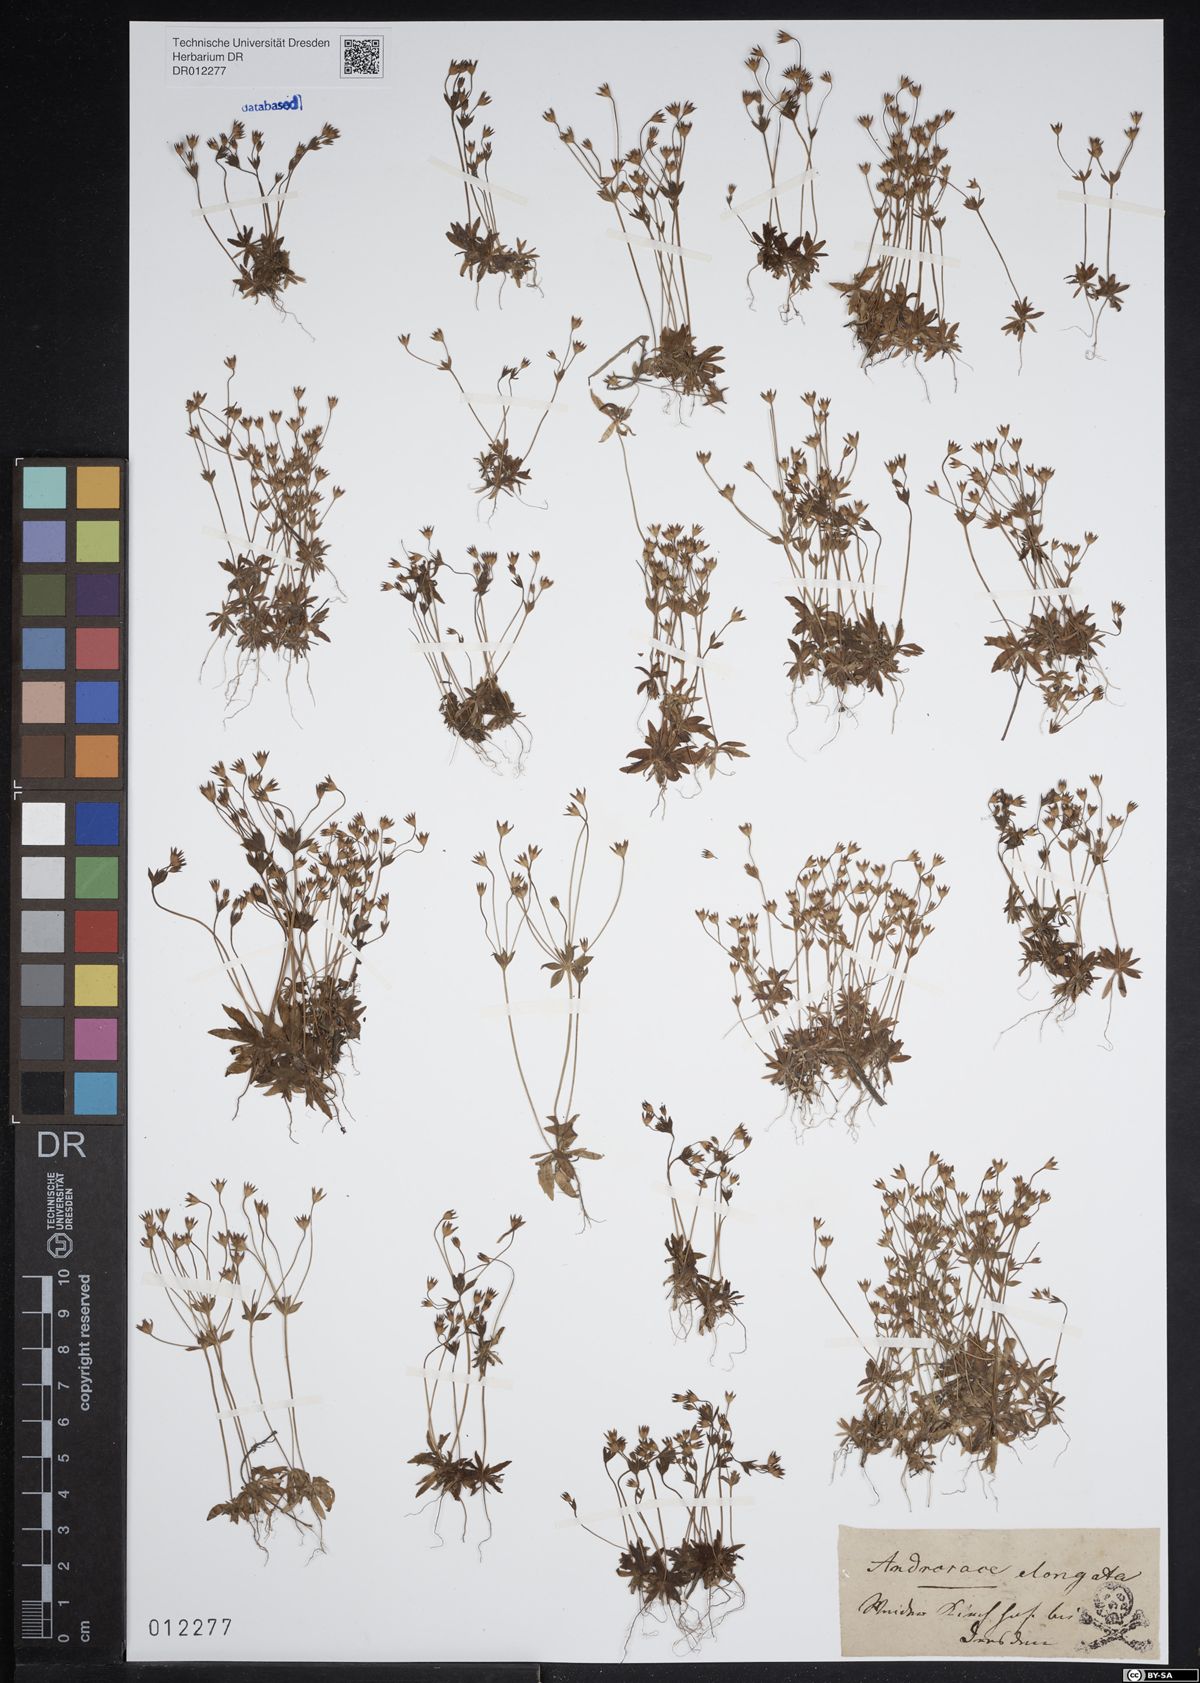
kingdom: Plantae
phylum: Tracheophyta
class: Magnoliopsida
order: Ericales
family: Primulaceae
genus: Androsace
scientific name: Androsace elongata
